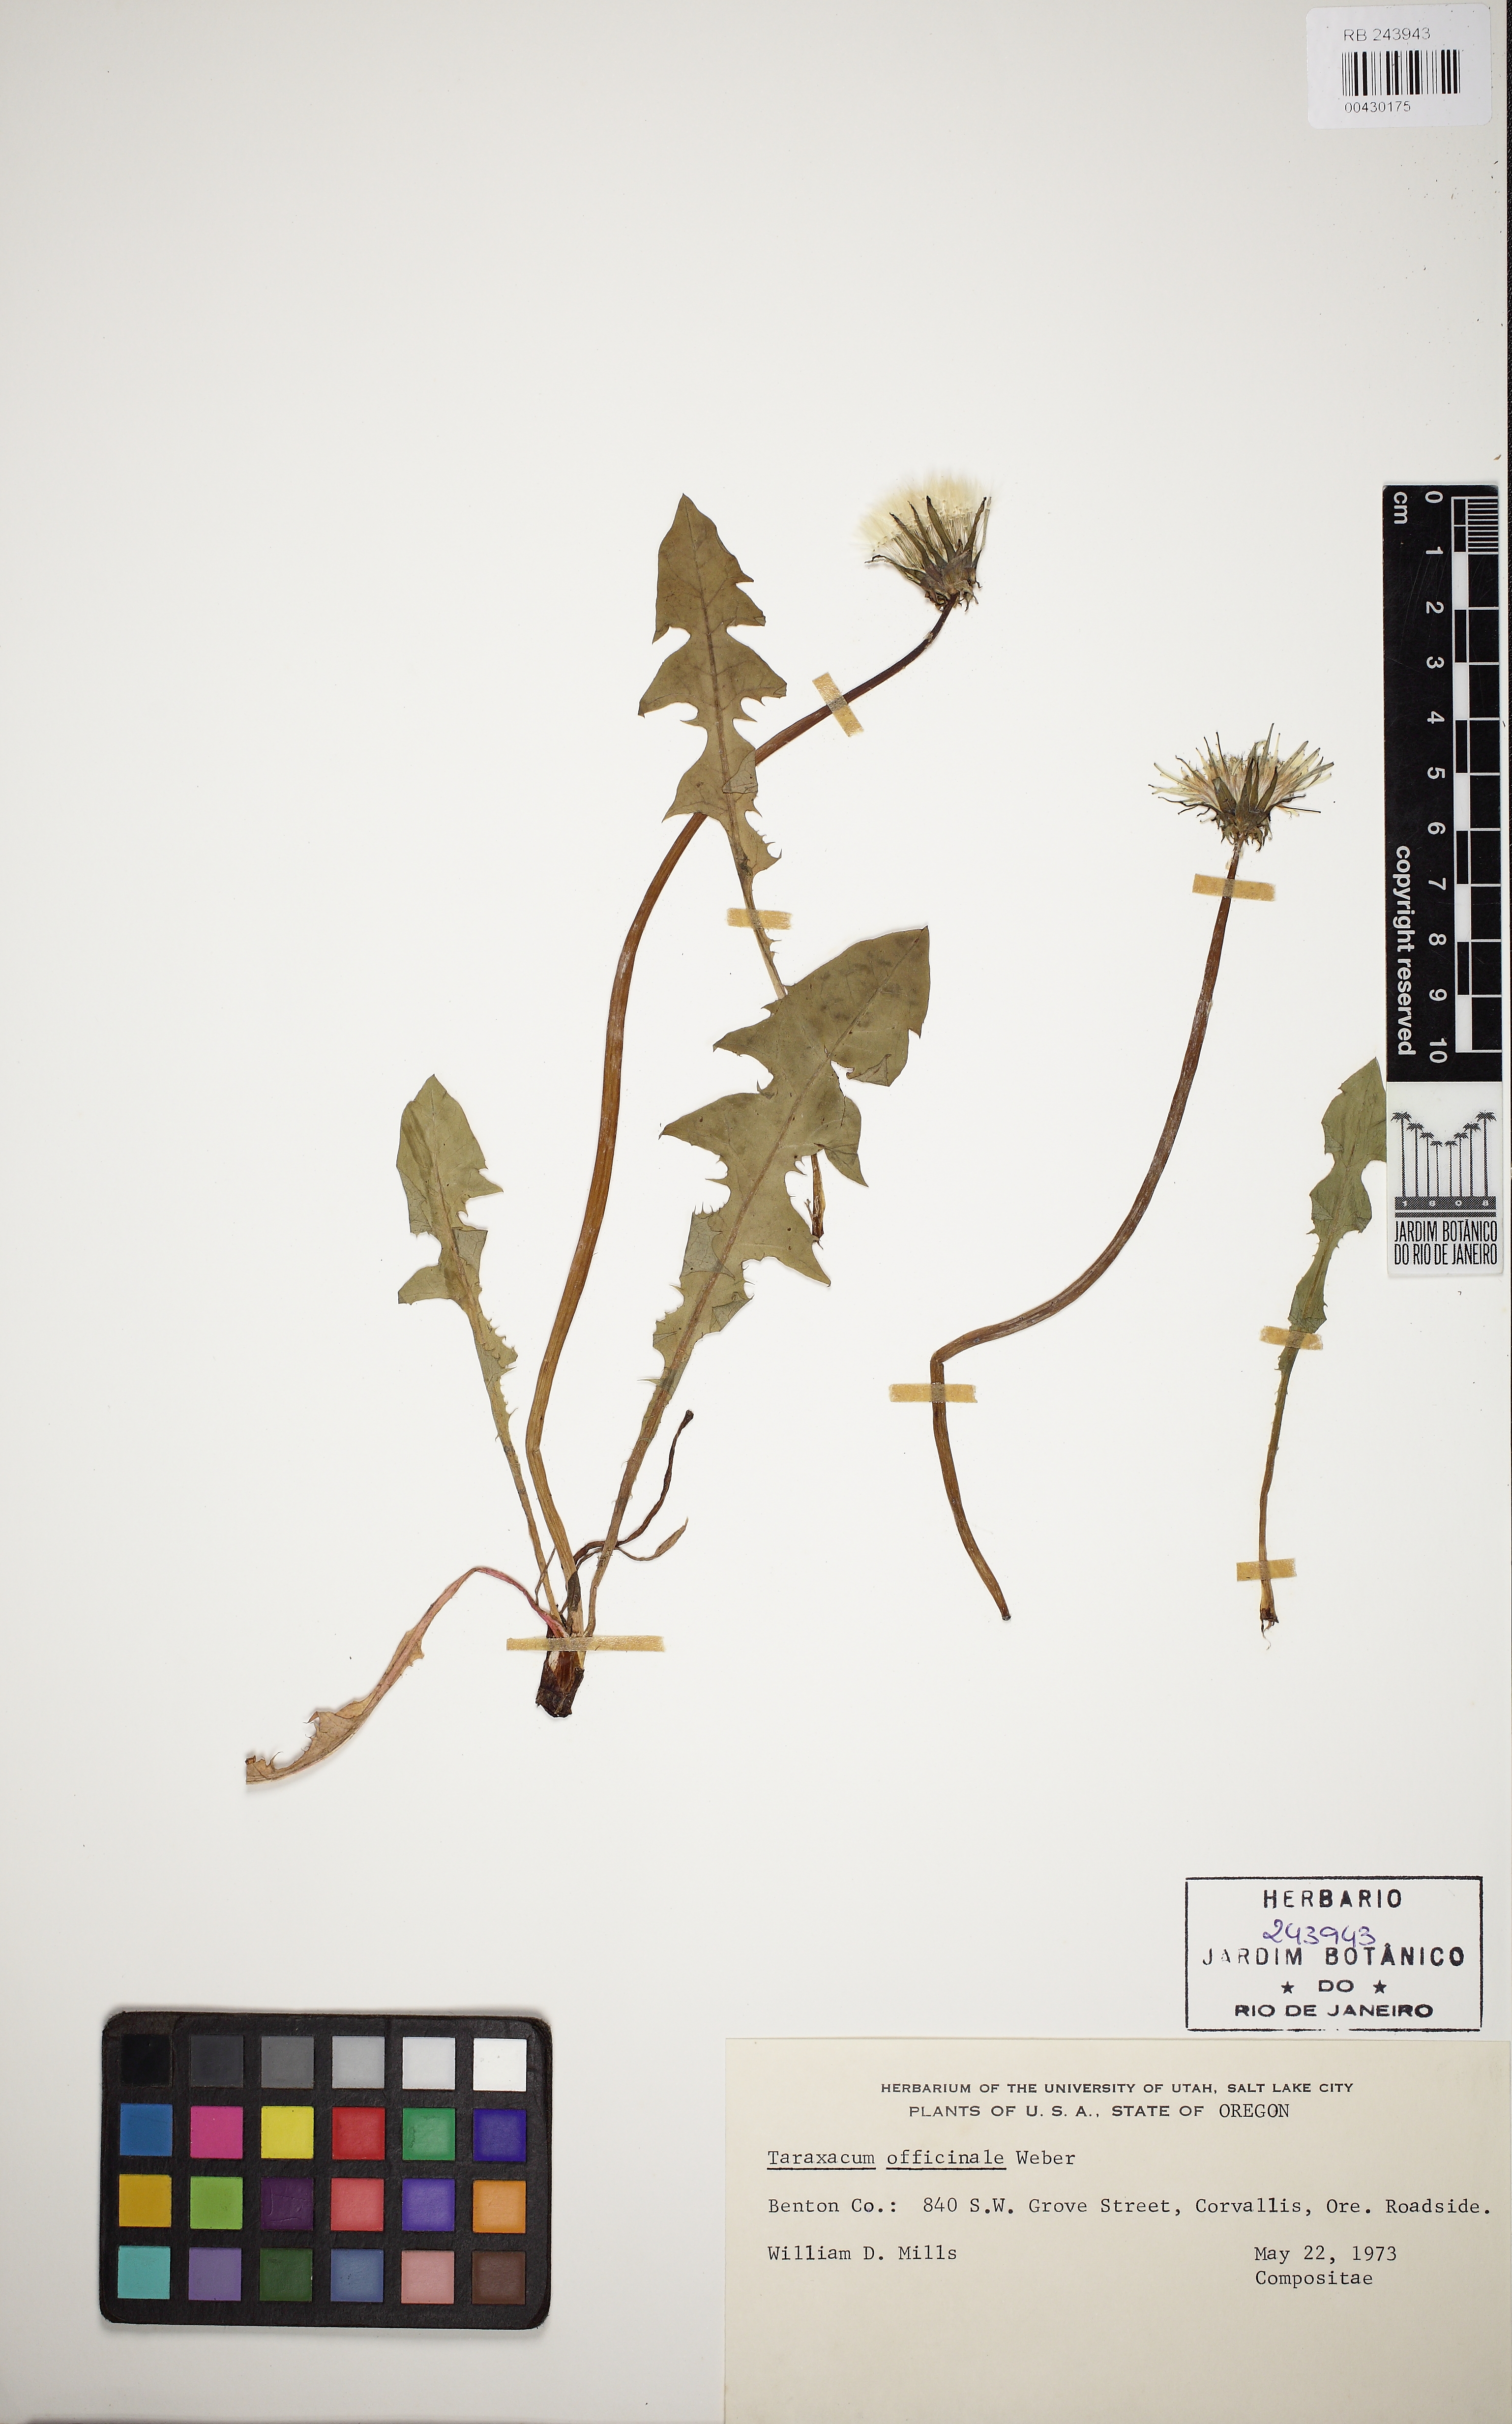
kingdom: Plantae
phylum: Tracheophyta
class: Magnoliopsida
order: Asterales
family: Asteraceae
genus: Taraxacum
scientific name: Taraxacum officinale
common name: Common dandelion
